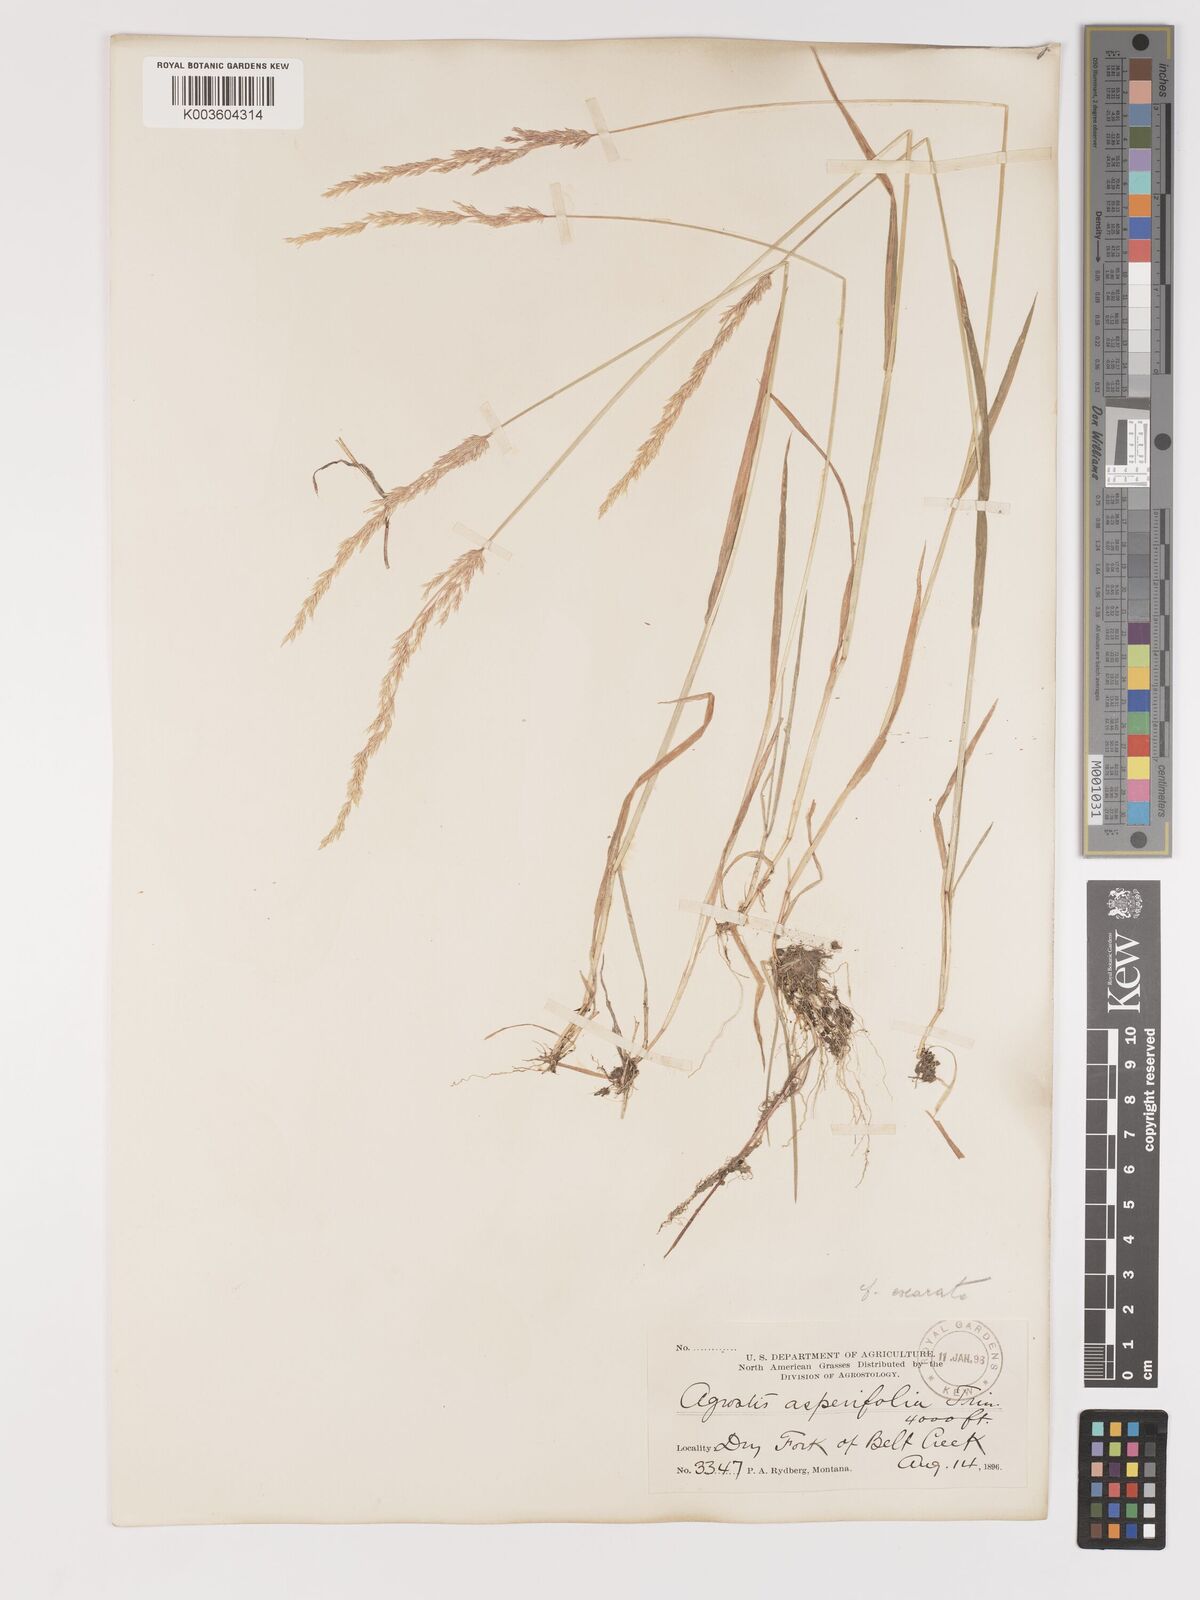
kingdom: Plantae
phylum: Tracheophyta
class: Liliopsida
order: Poales
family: Poaceae
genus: Agrostis
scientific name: Agrostis exarata
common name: Spike bent
